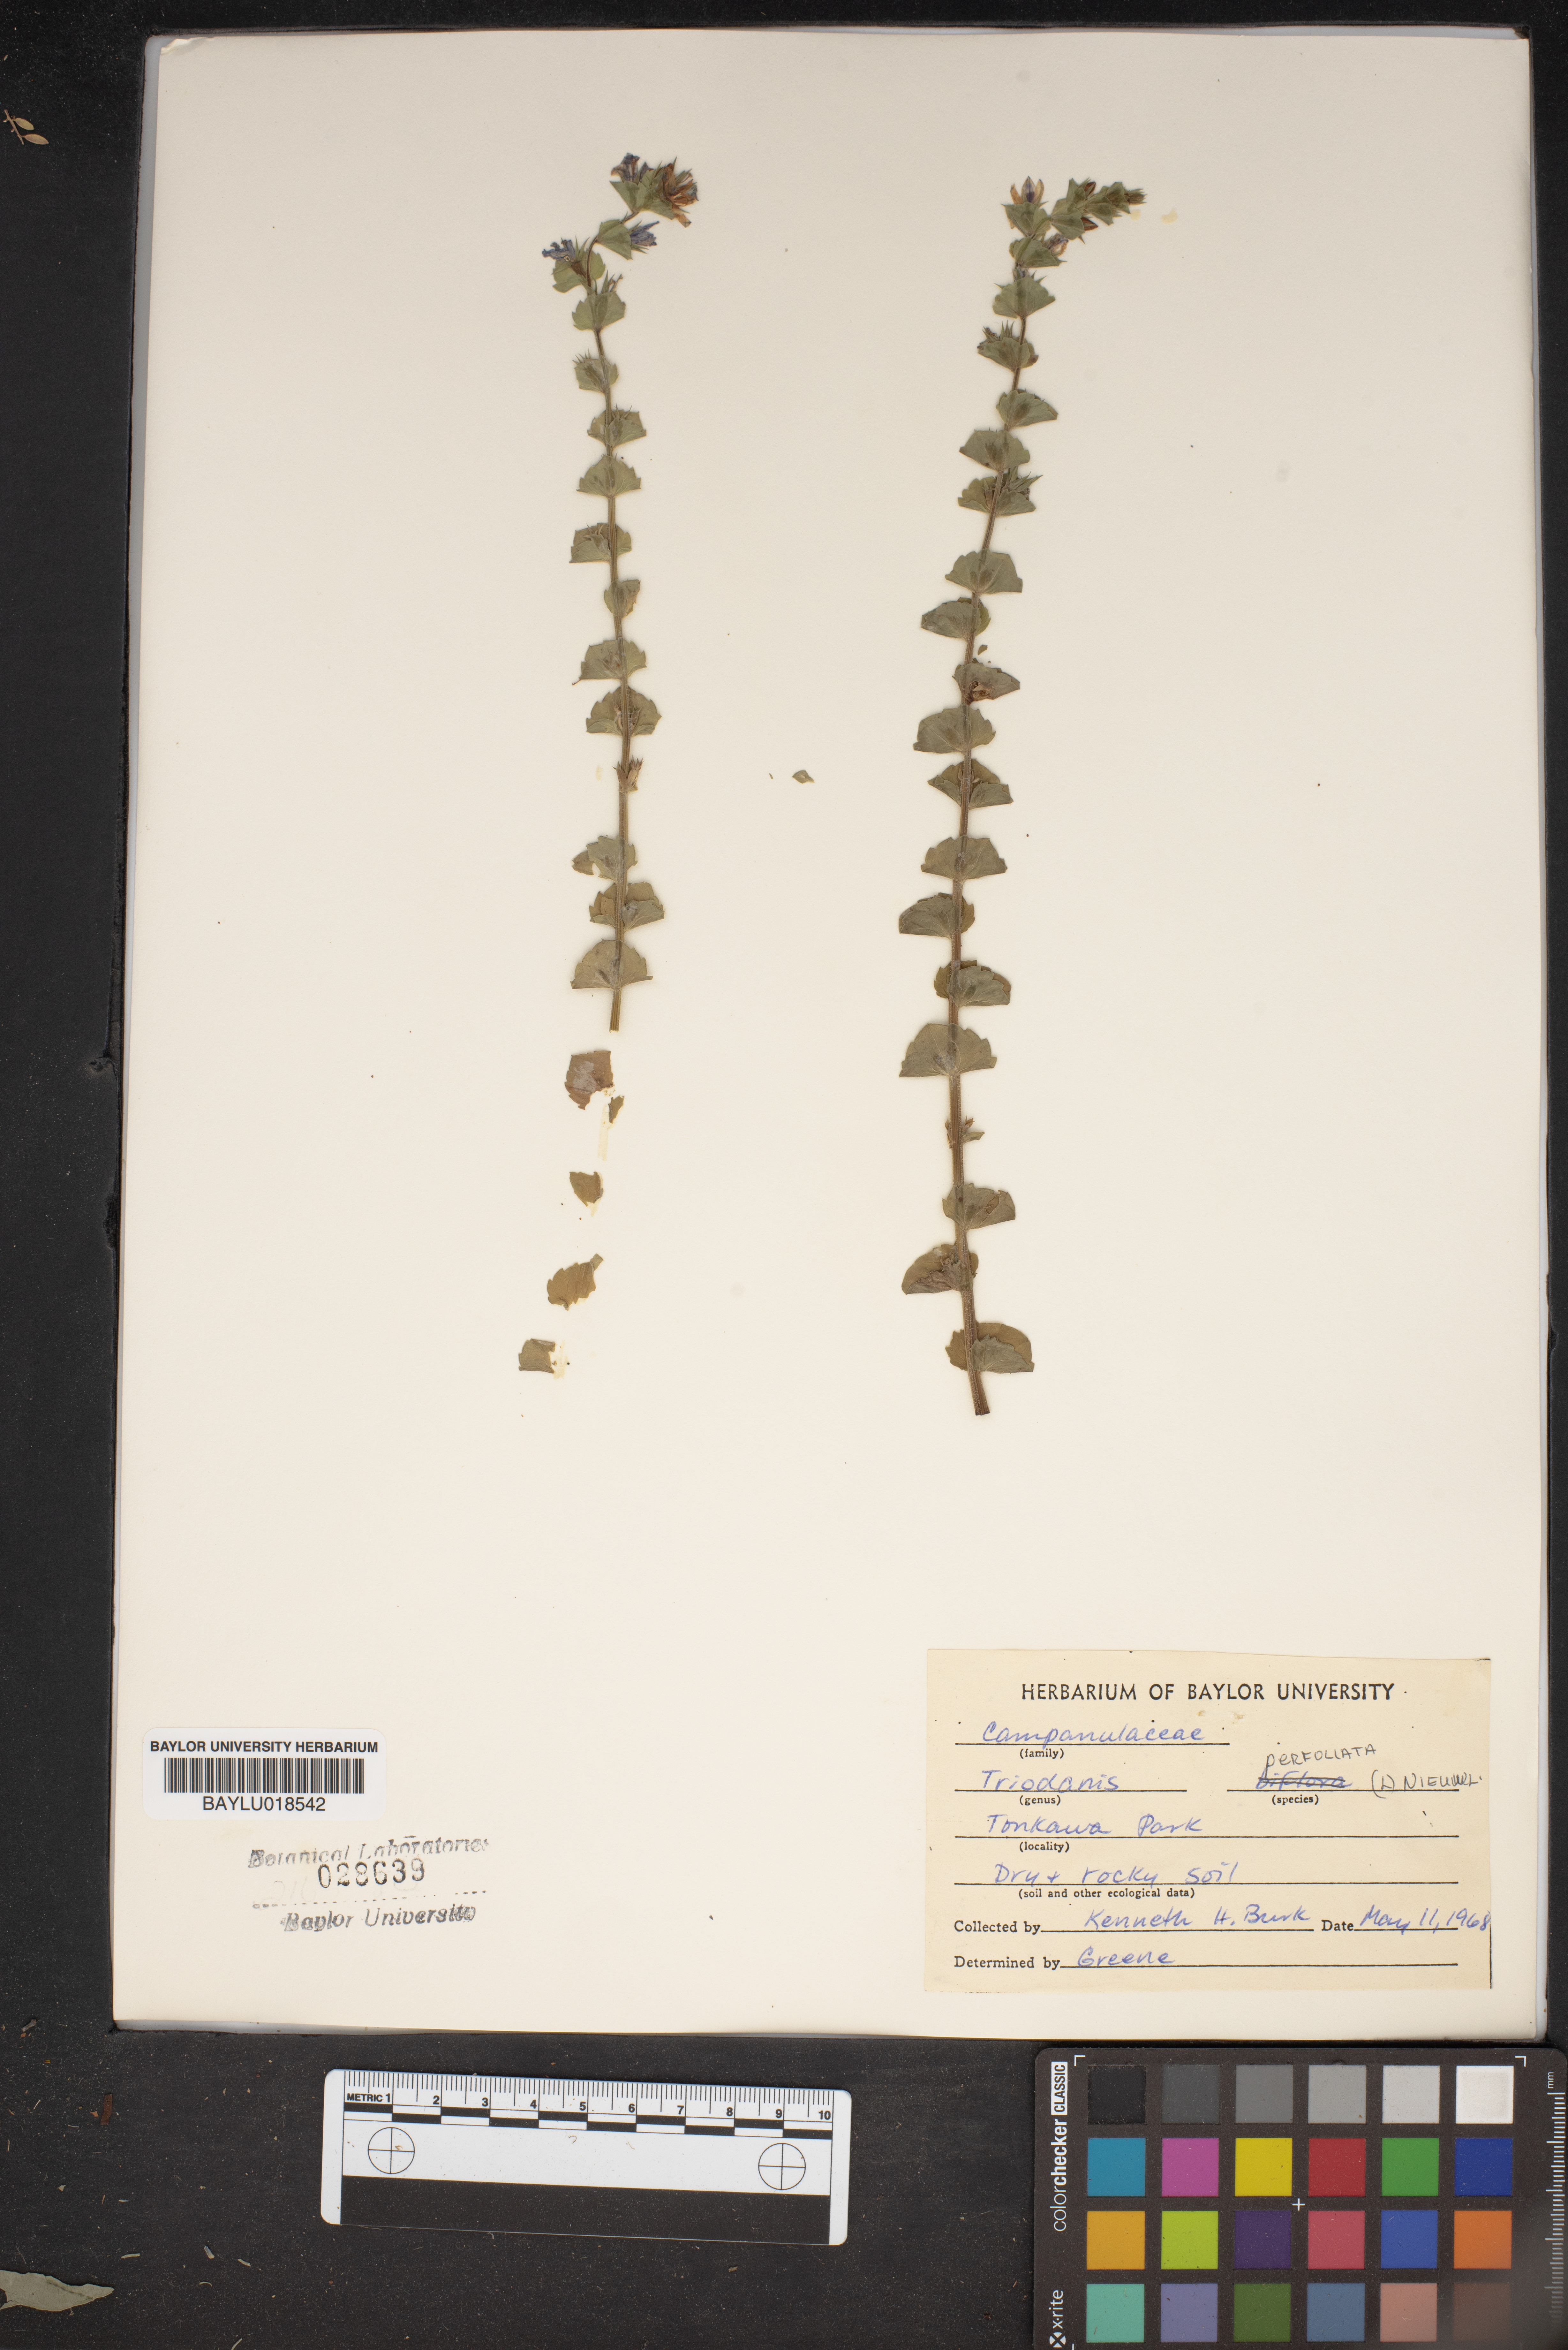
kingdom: Plantae
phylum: Tracheophyta
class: Magnoliopsida
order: Asterales
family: Campanulaceae
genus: Triodanis
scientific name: Triodanis perfoliata
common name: Clasping venus' looking-glass
